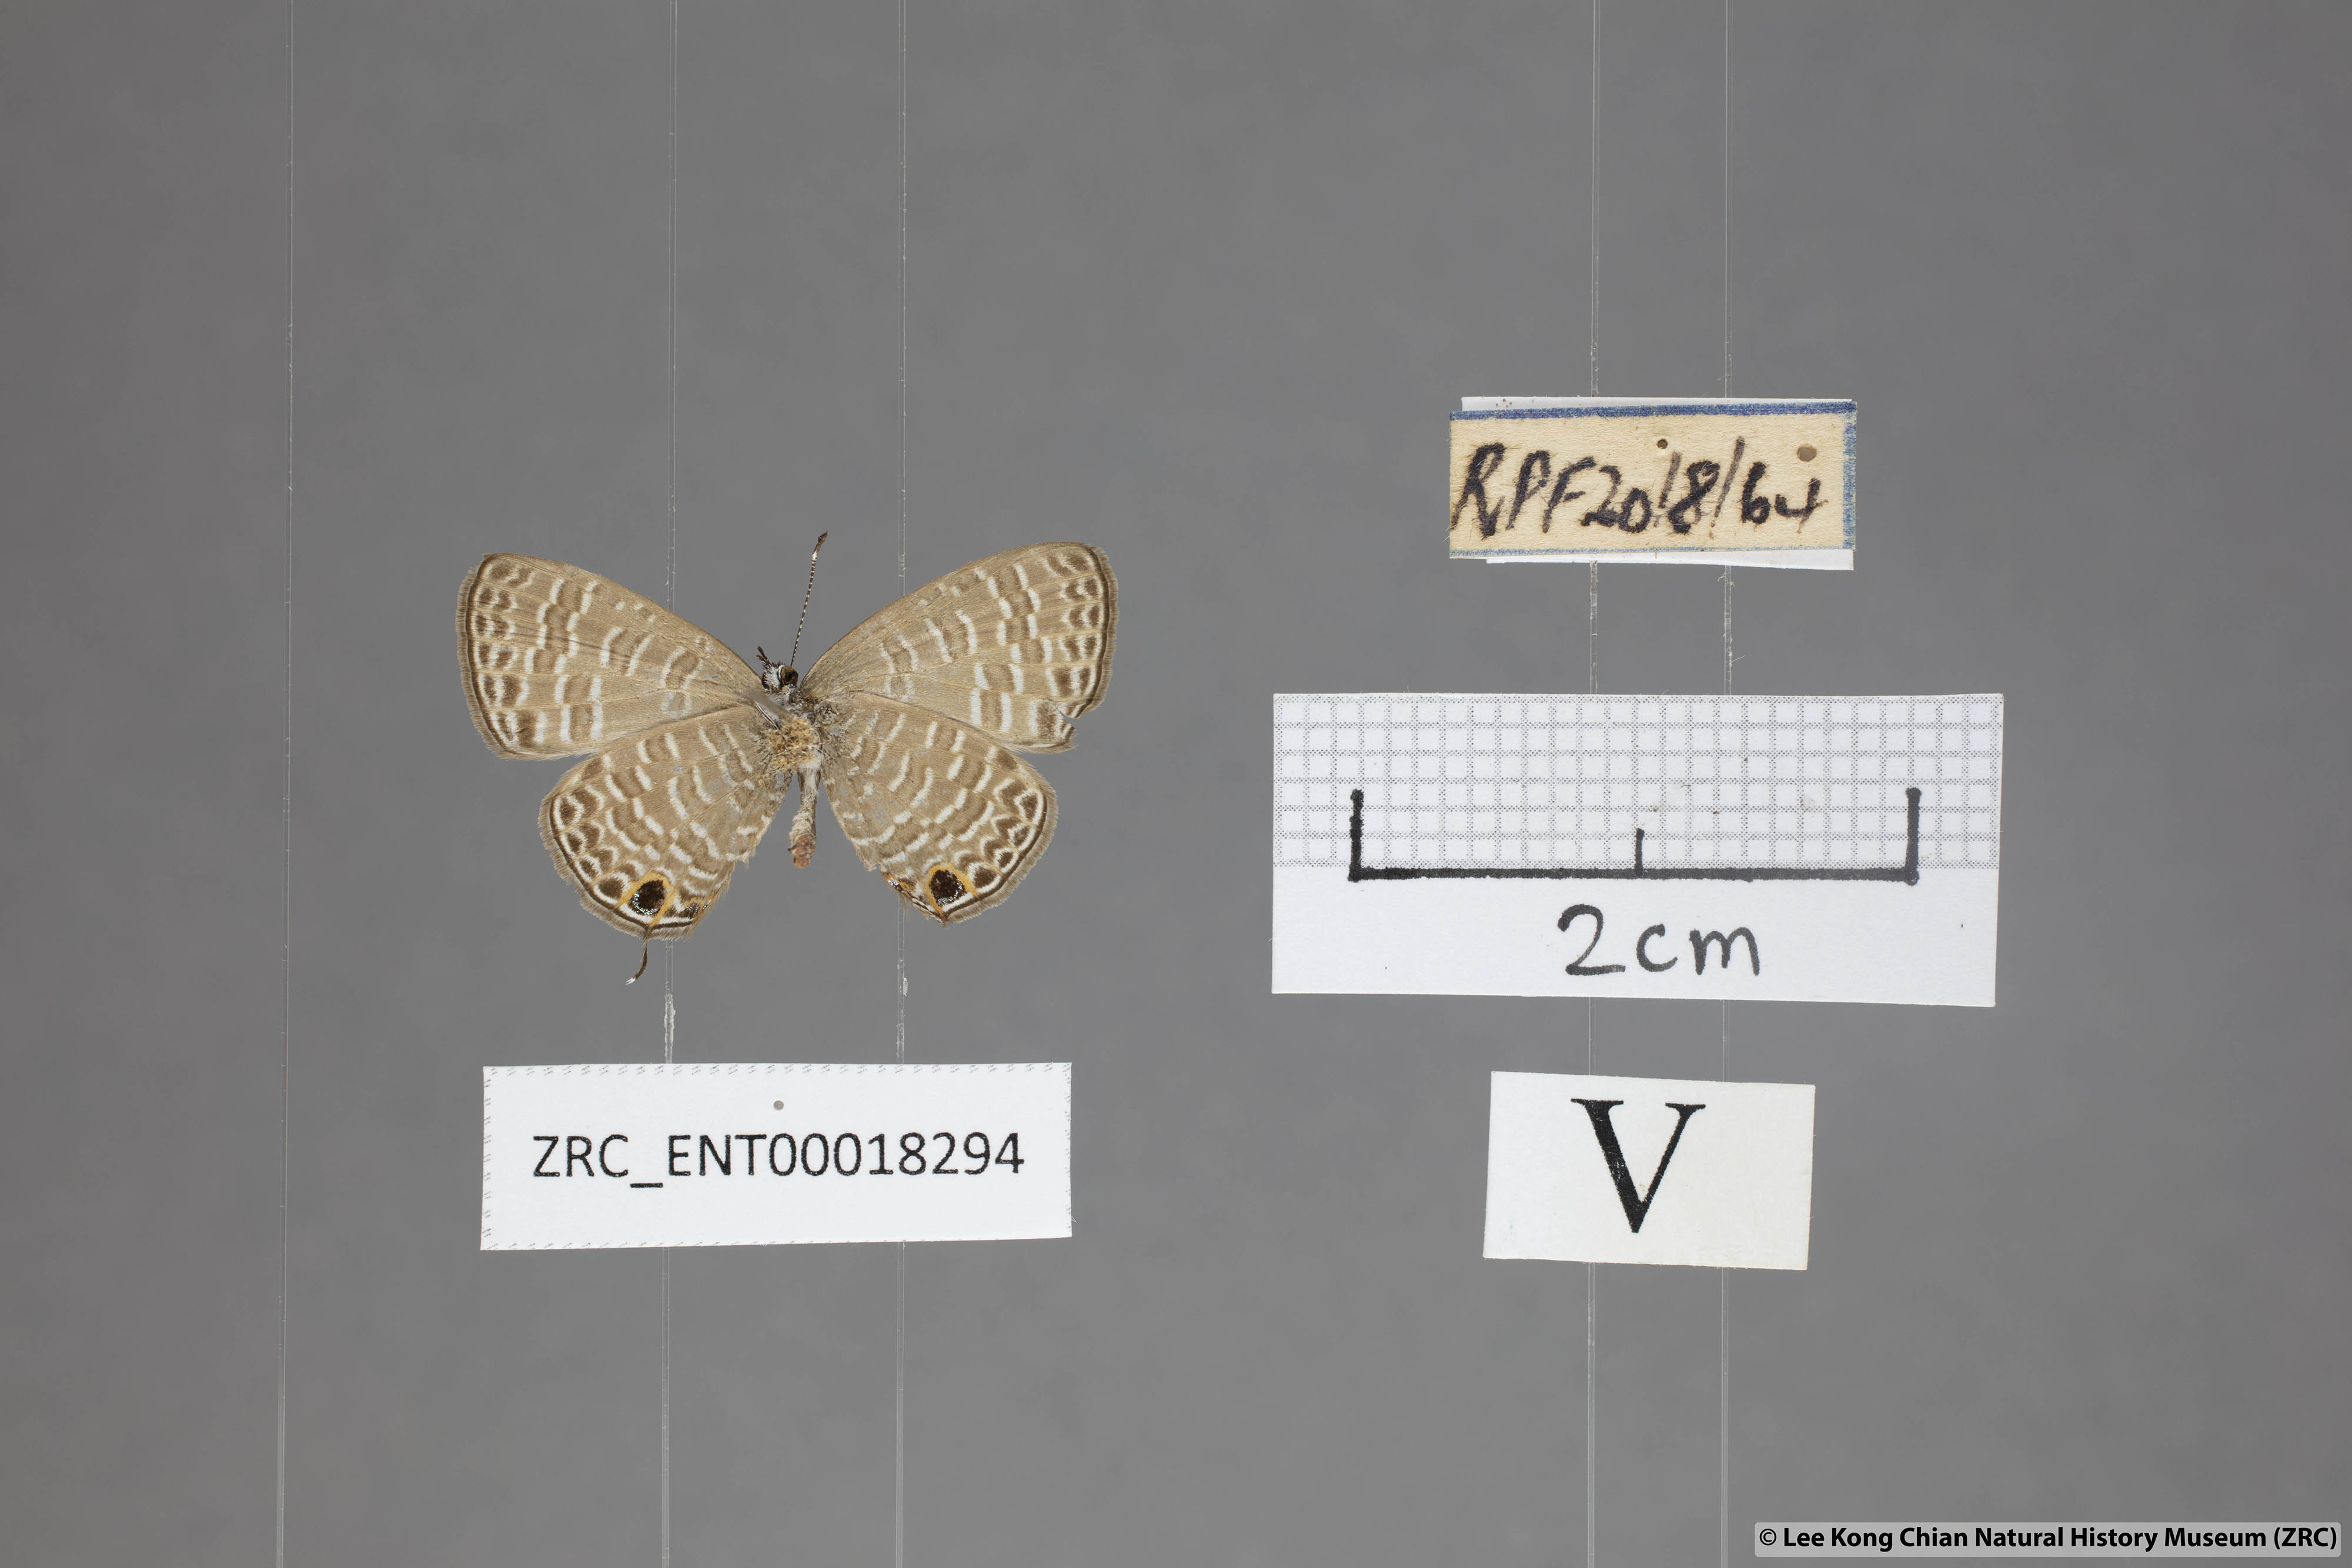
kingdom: Animalia
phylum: Arthropoda
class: Insecta
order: Lepidoptera
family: Lycaenidae
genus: Prosotas
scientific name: Prosotas aluta
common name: Barred lineblue
